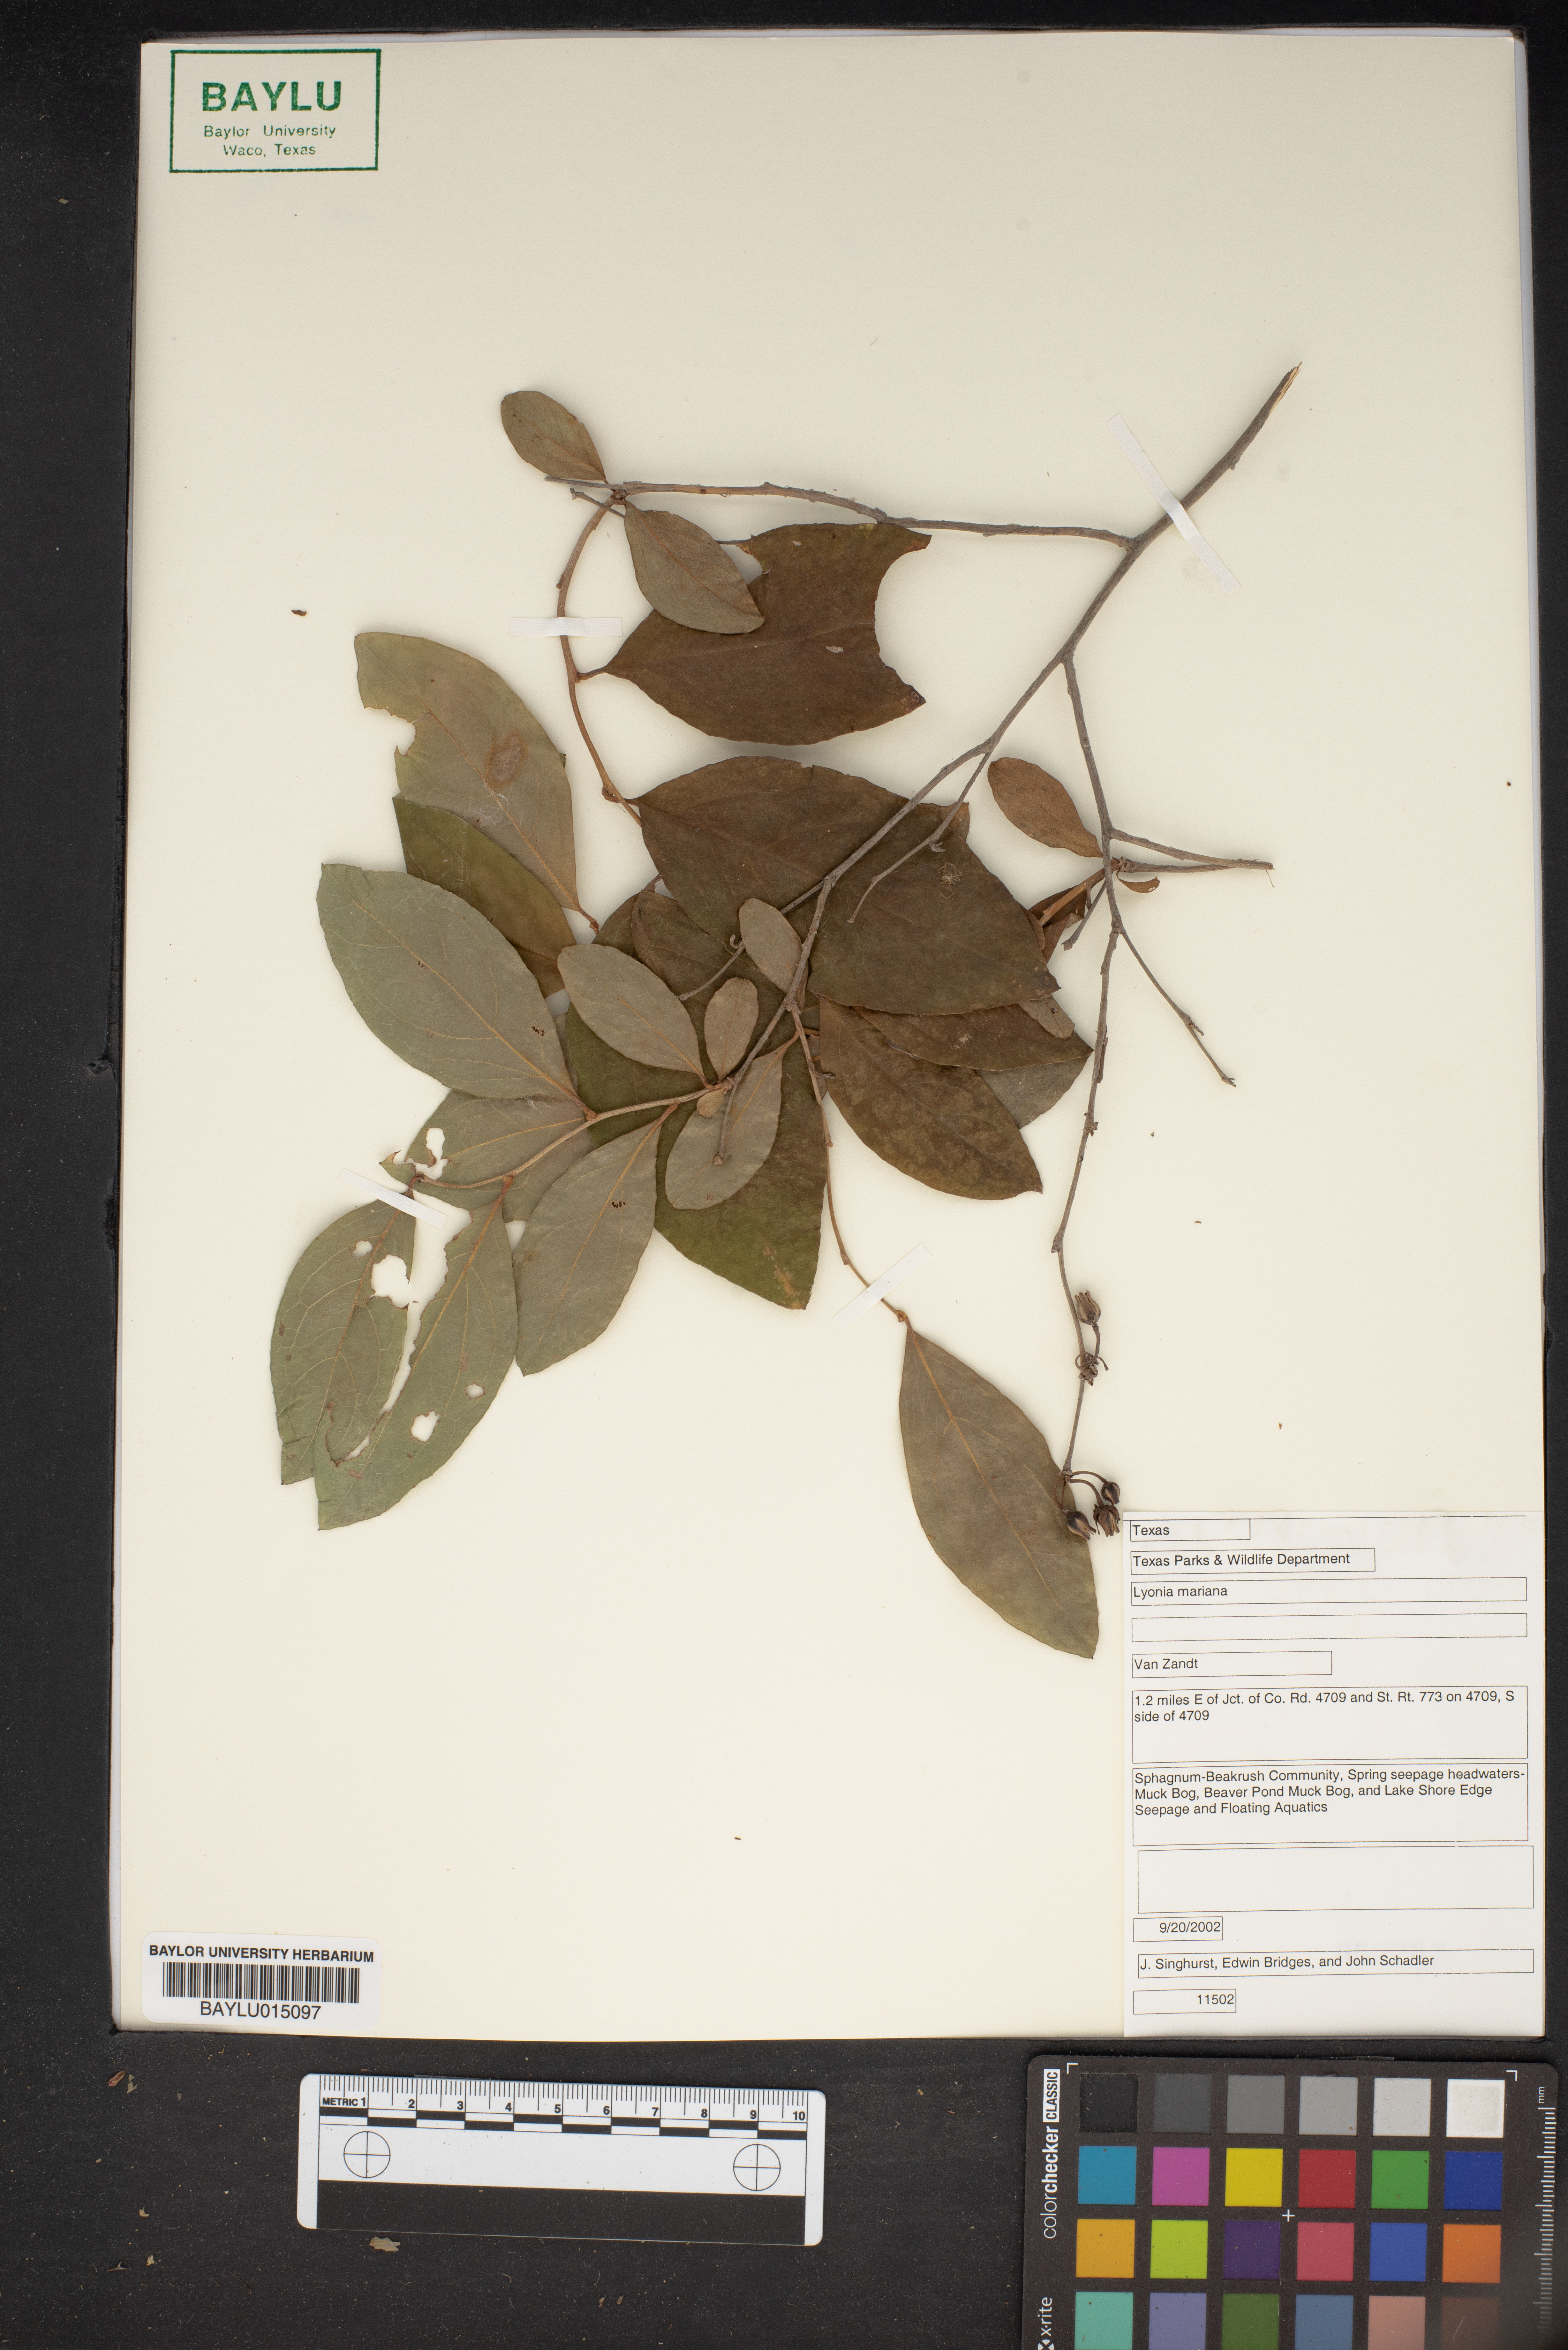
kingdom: Plantae
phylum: Tracheophyta
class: Magnoliopsida
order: Ericales
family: Ericaceae
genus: Lyonia
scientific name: Lyonia mariana
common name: Staggerbush
